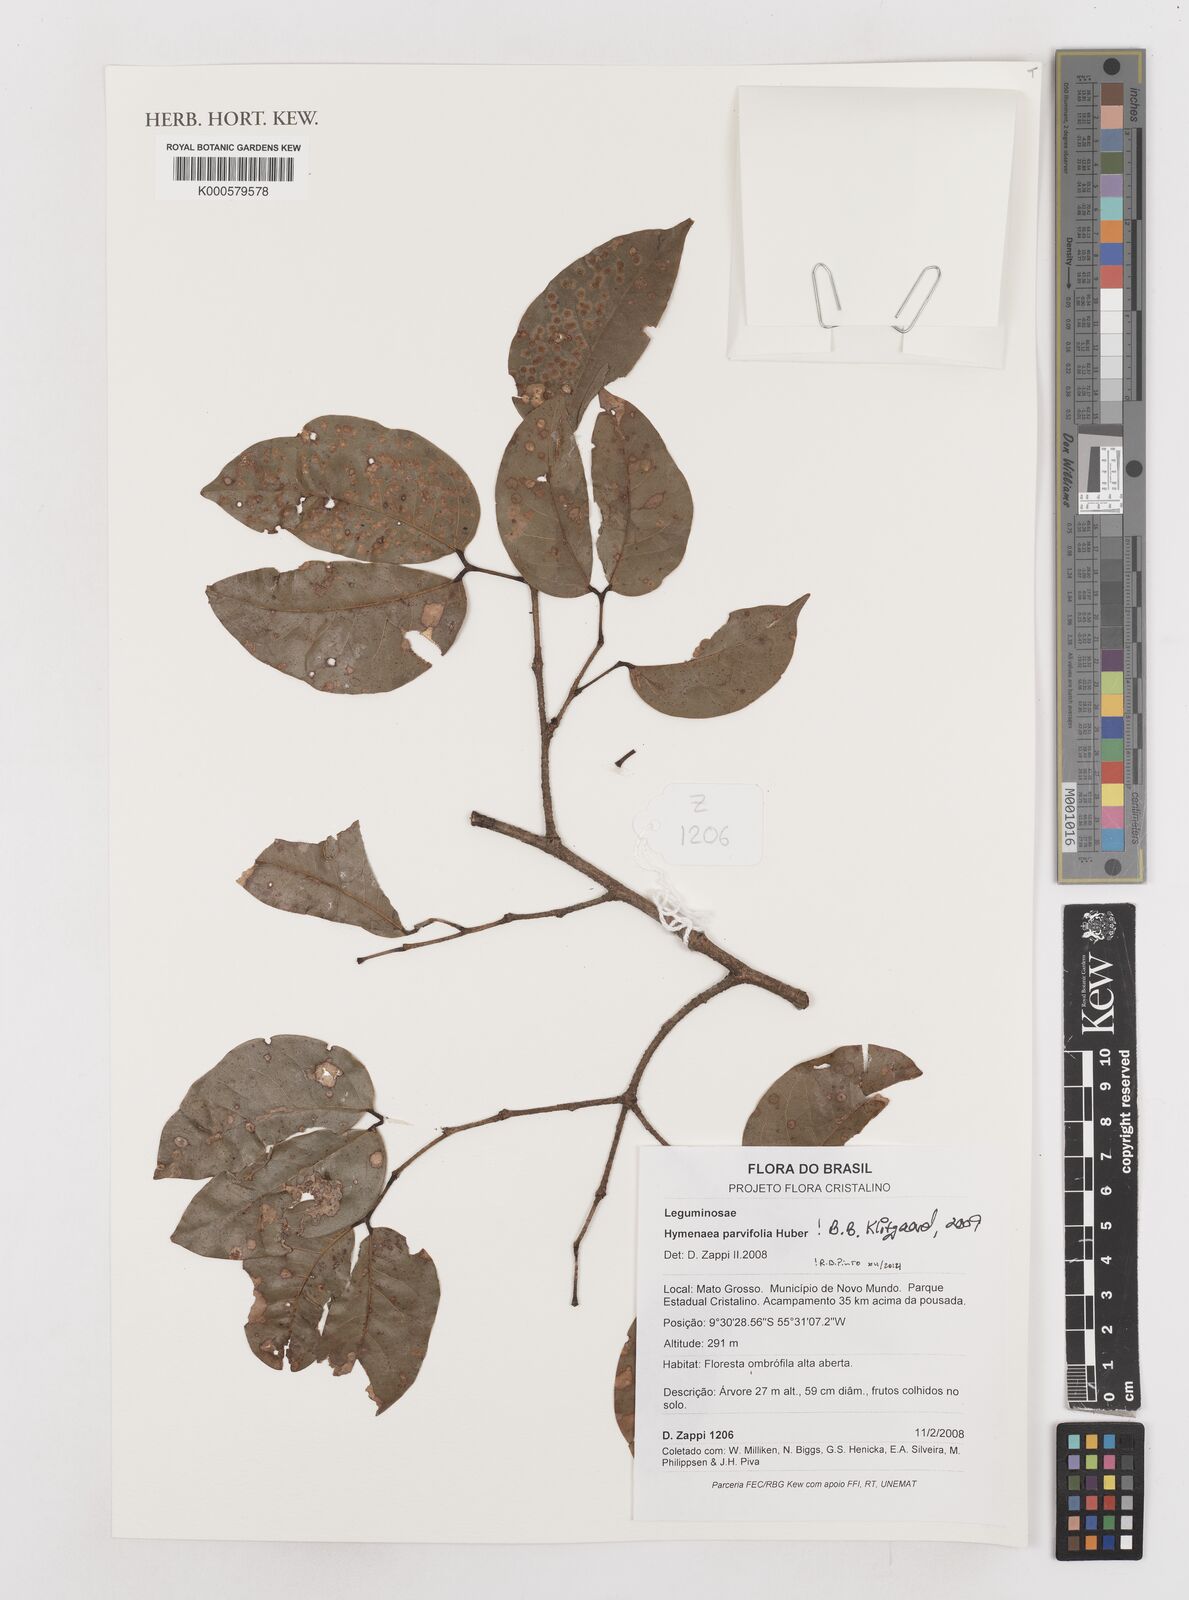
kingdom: Plantae
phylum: Tracheophyta
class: Magnoliopsida
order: Fabales
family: Fabaceae
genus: Hymenaea
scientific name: Hymenaea parvifolia
